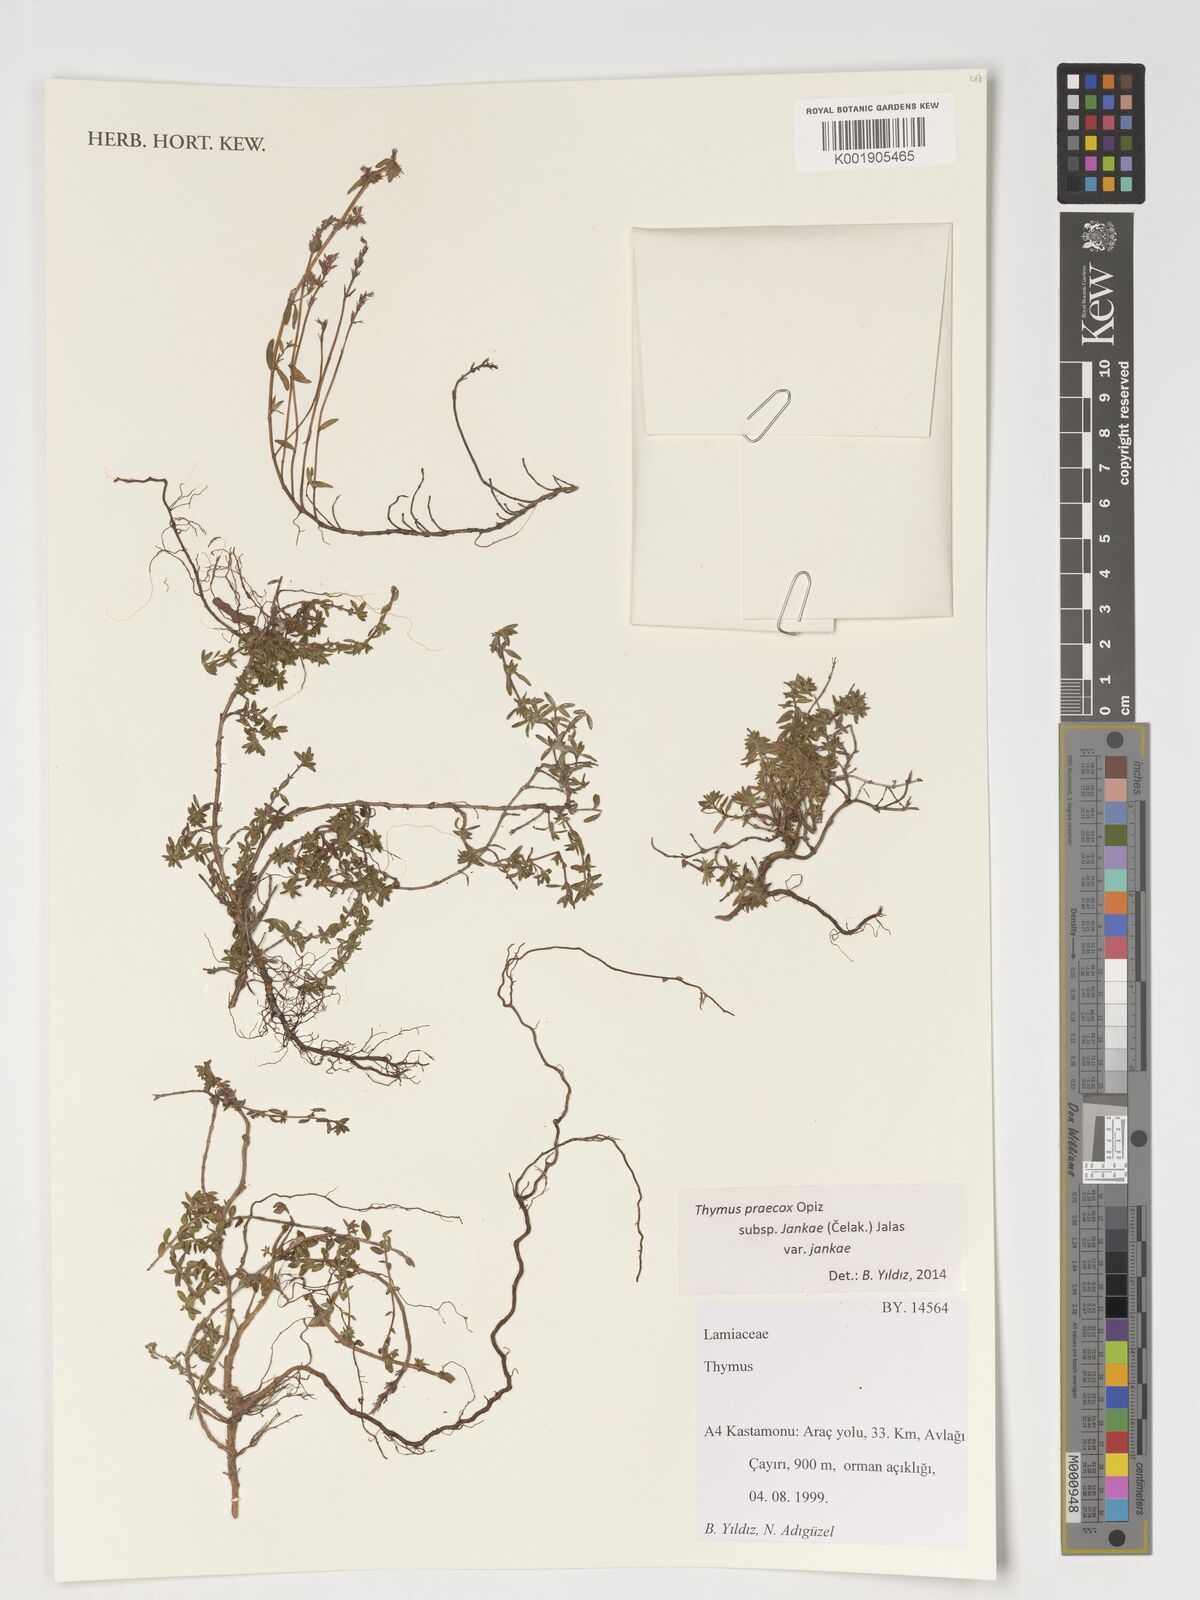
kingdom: Plantae
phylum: Tracheophyta
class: Magnoliopsida
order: Lamiales
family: Lamiaceae
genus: Thymus
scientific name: Thymus jankae
